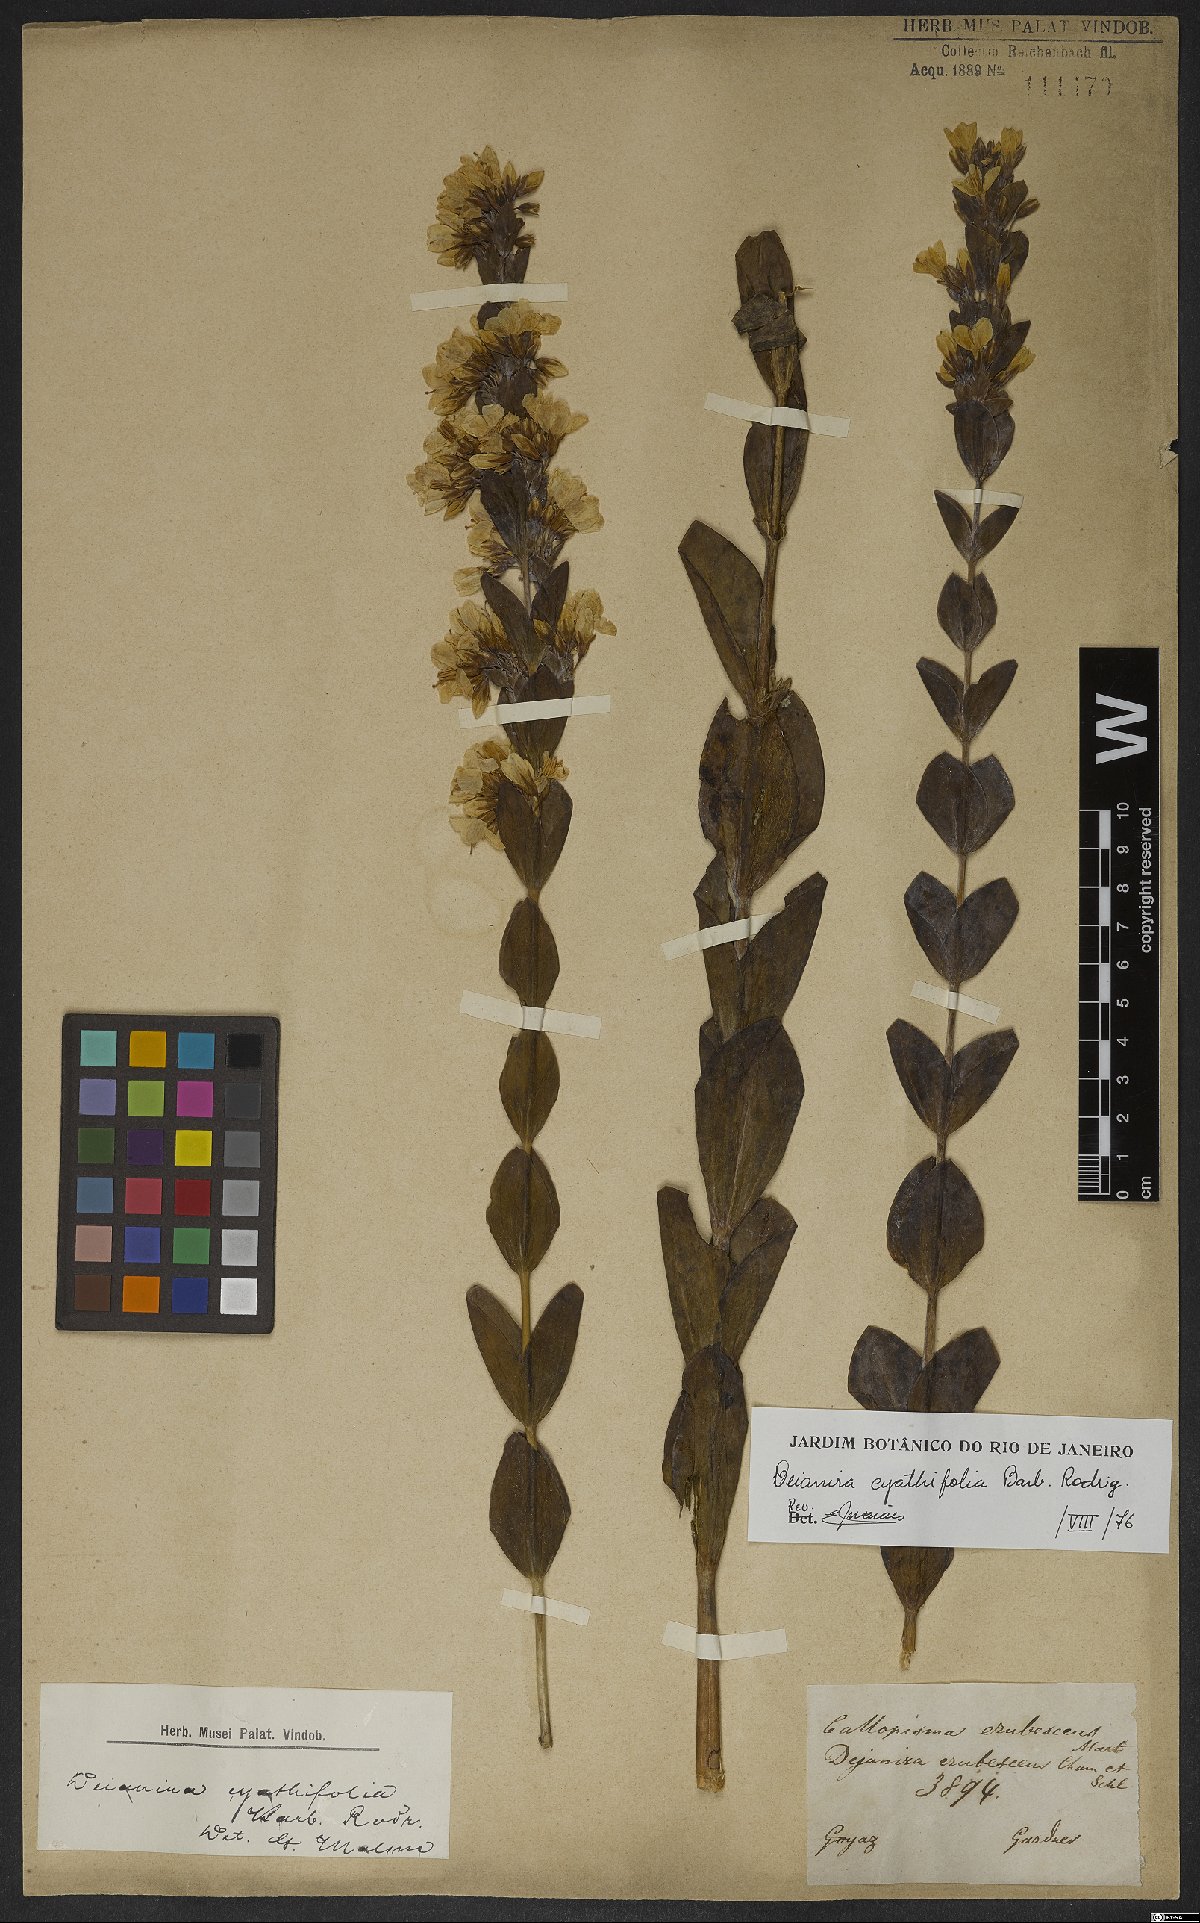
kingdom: Plantae
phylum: Tracheophyta
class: Magnoliopsida
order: Gentianales
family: Gentianaceae
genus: Deianira
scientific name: Deianira cyathifolia
